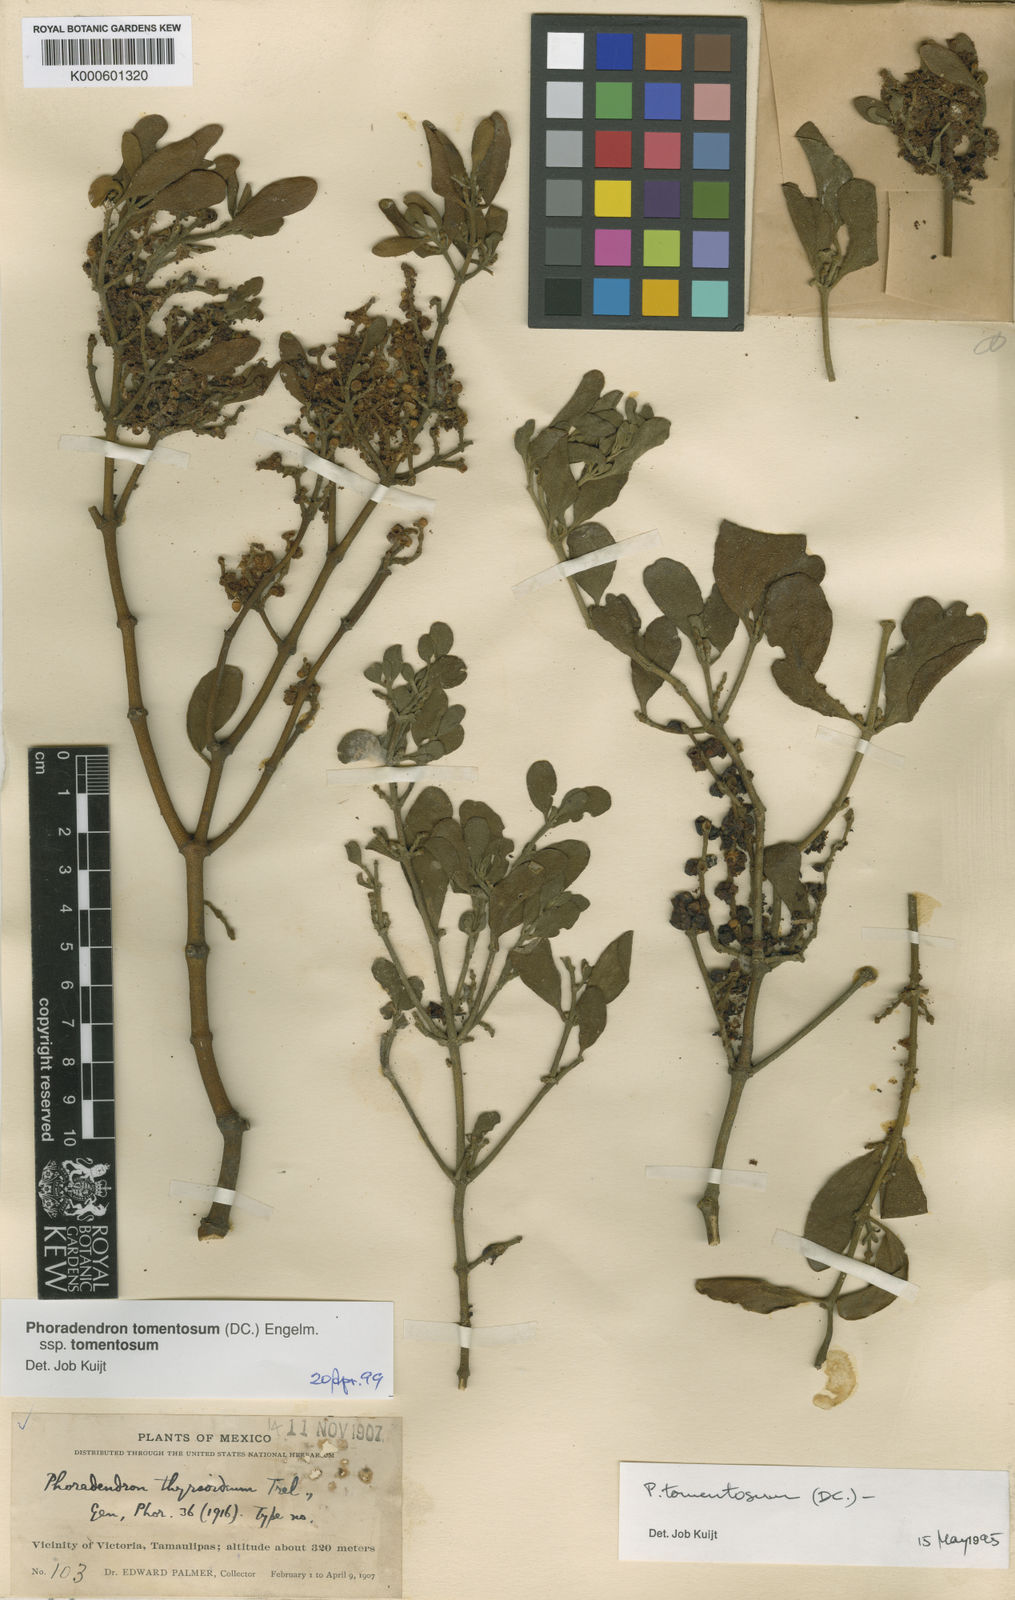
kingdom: Plantae
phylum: Tracheophyta
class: Magnoliopsida
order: Santalales
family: Viscaceae
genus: Phoradendron
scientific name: Phoradendron leucarpum
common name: Pacific mistletoe
